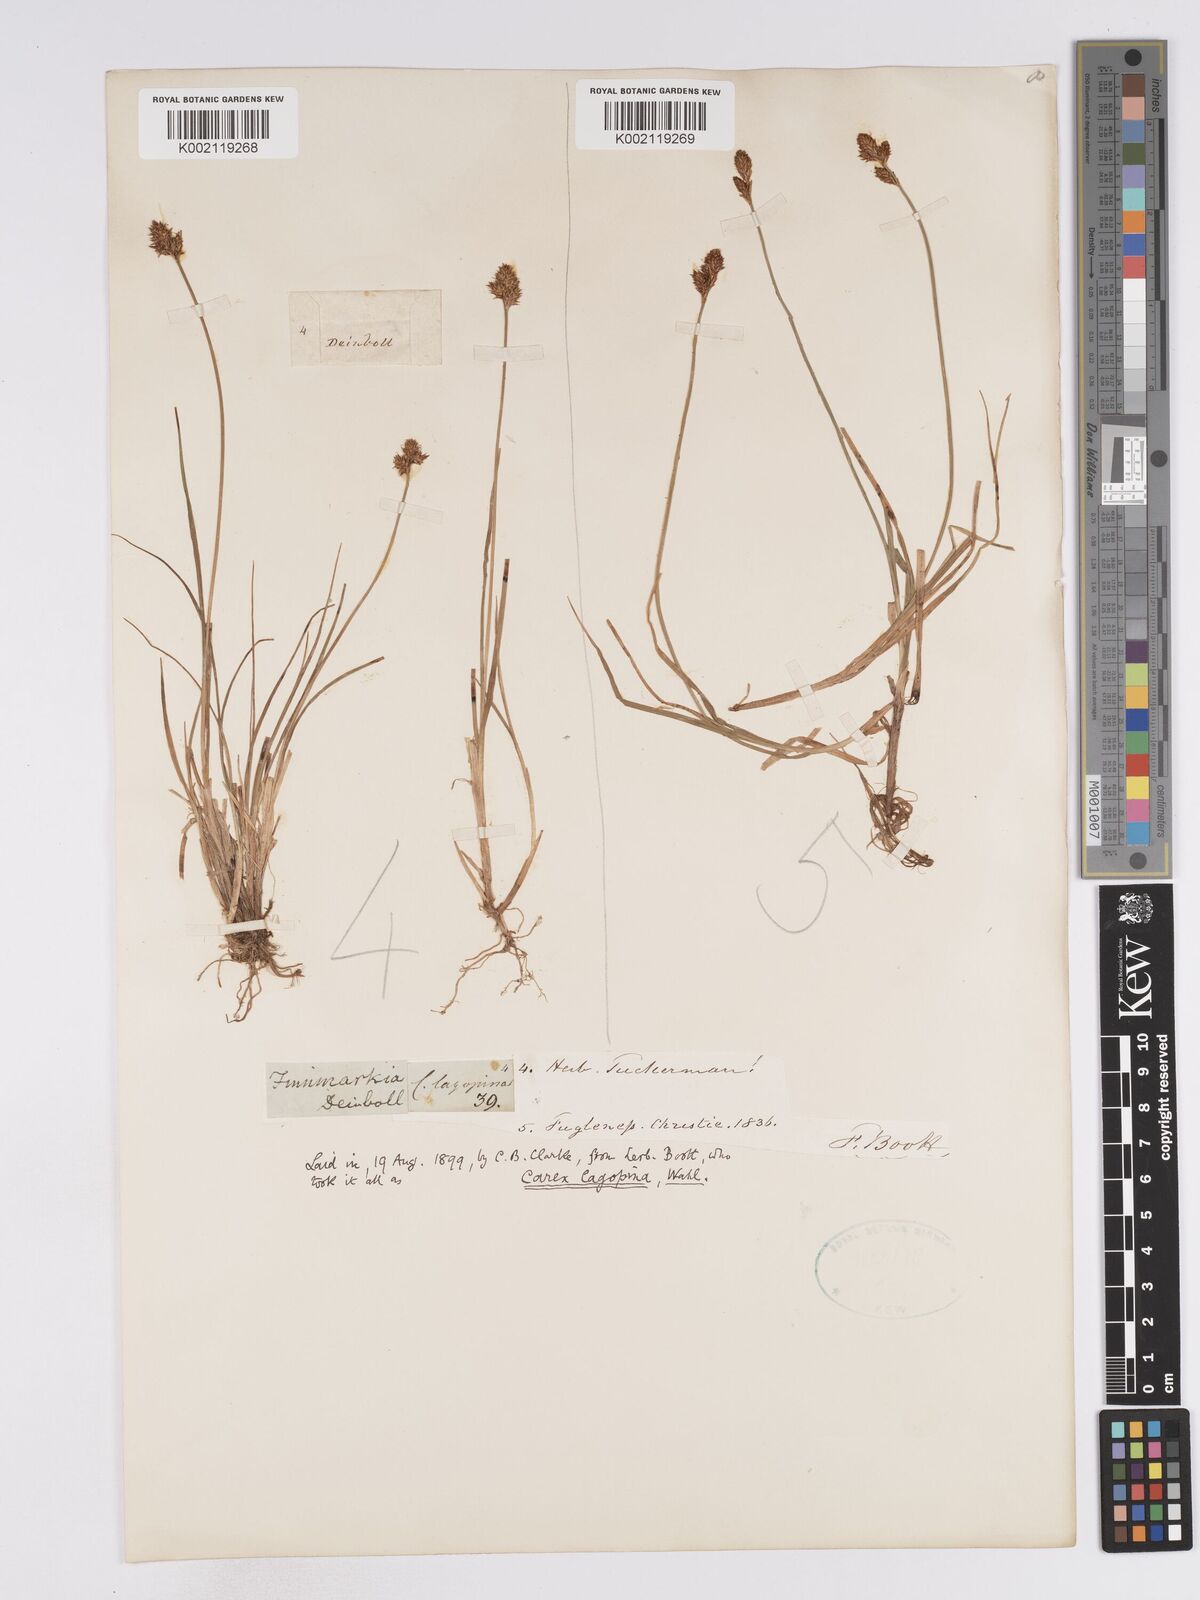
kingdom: Plantae
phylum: Tracheophyta
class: Liliopsida
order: Poales
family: Cyperaceae
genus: Carex
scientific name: Carex lachenalii
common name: Hare's-foot sedge
